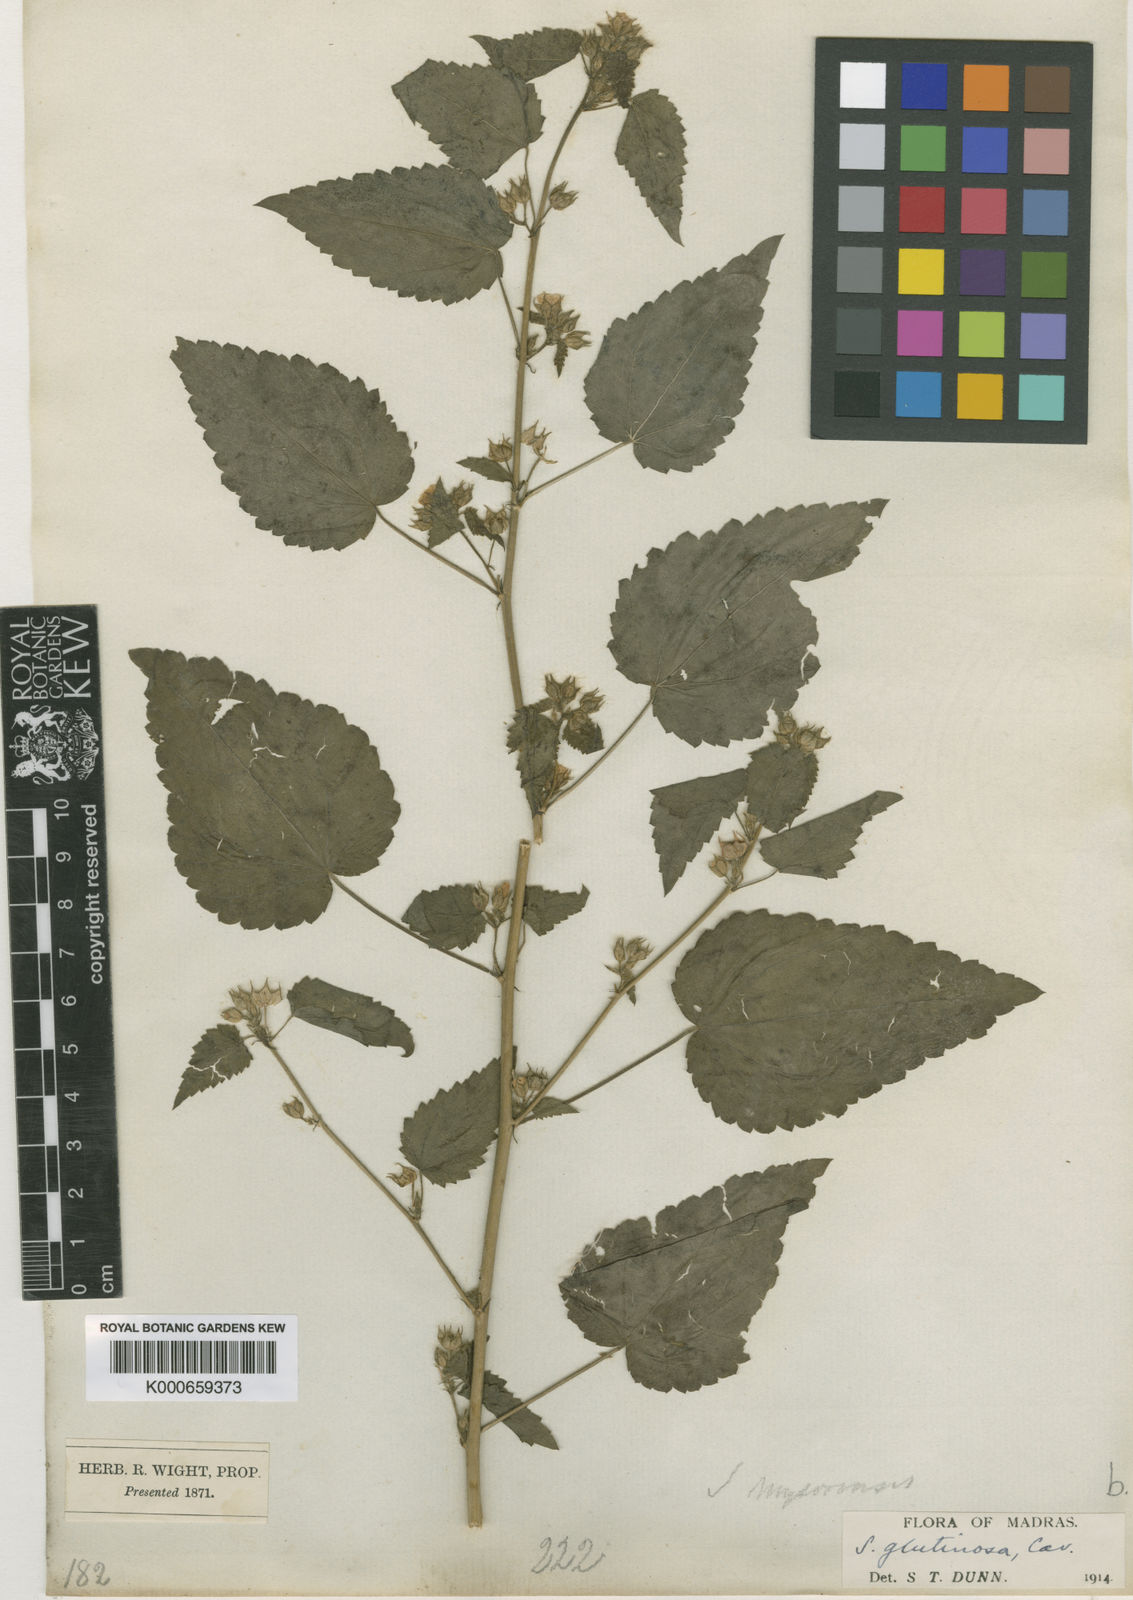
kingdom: Plantae
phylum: Tracheophyta
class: Magnoliopsida
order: Malvales
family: Malvaceae
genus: Sida
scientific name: Sida mysorensis
